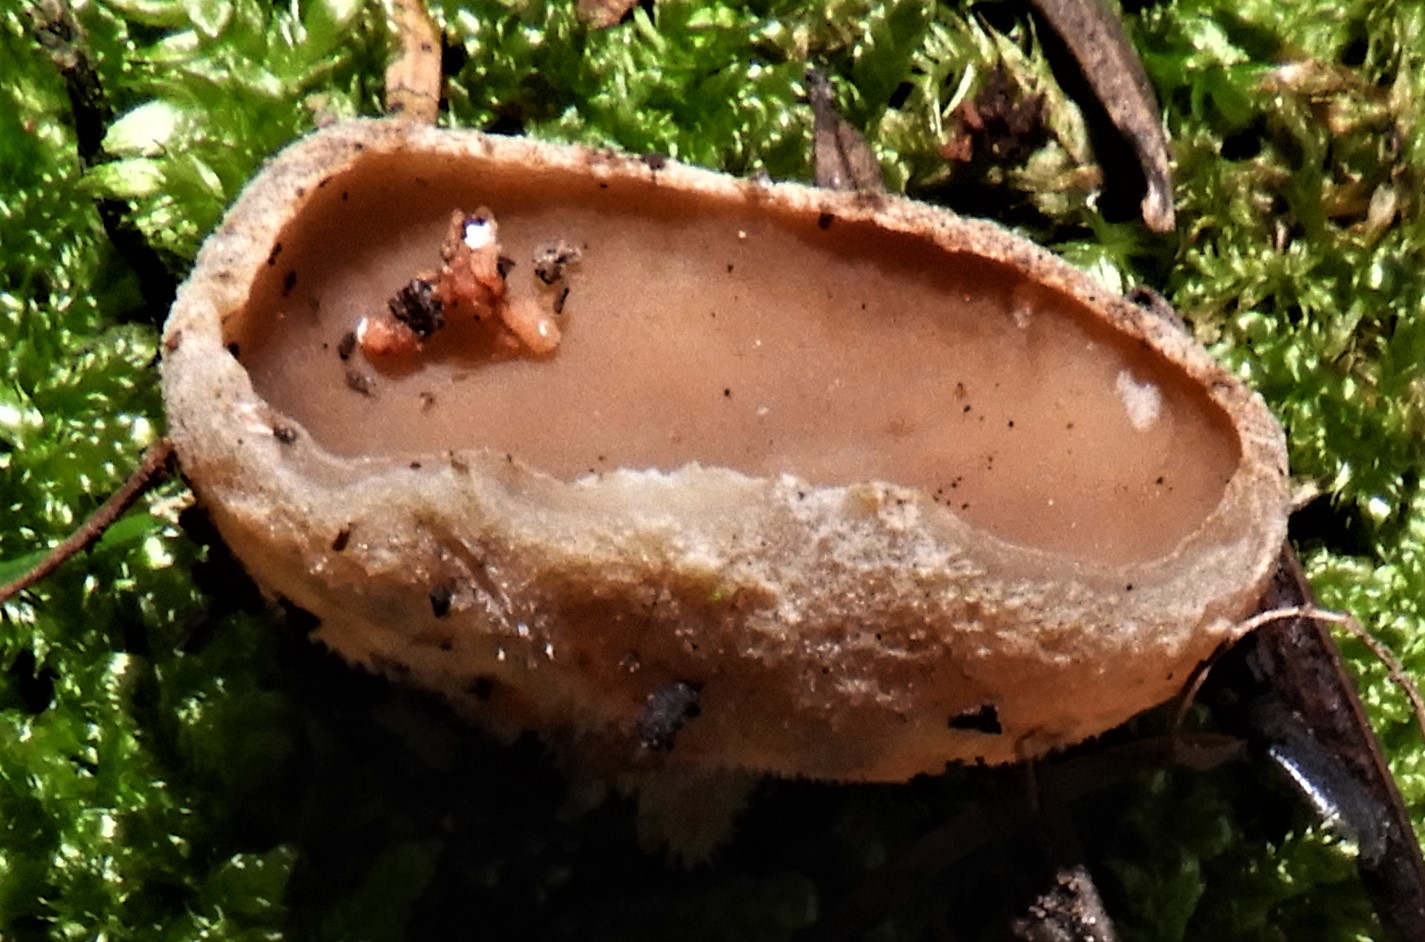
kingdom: Fungi
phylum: Ascomycota
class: Pezizomycetes
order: Pezizales
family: Pezizaceae
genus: Peziza
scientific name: Peziza
